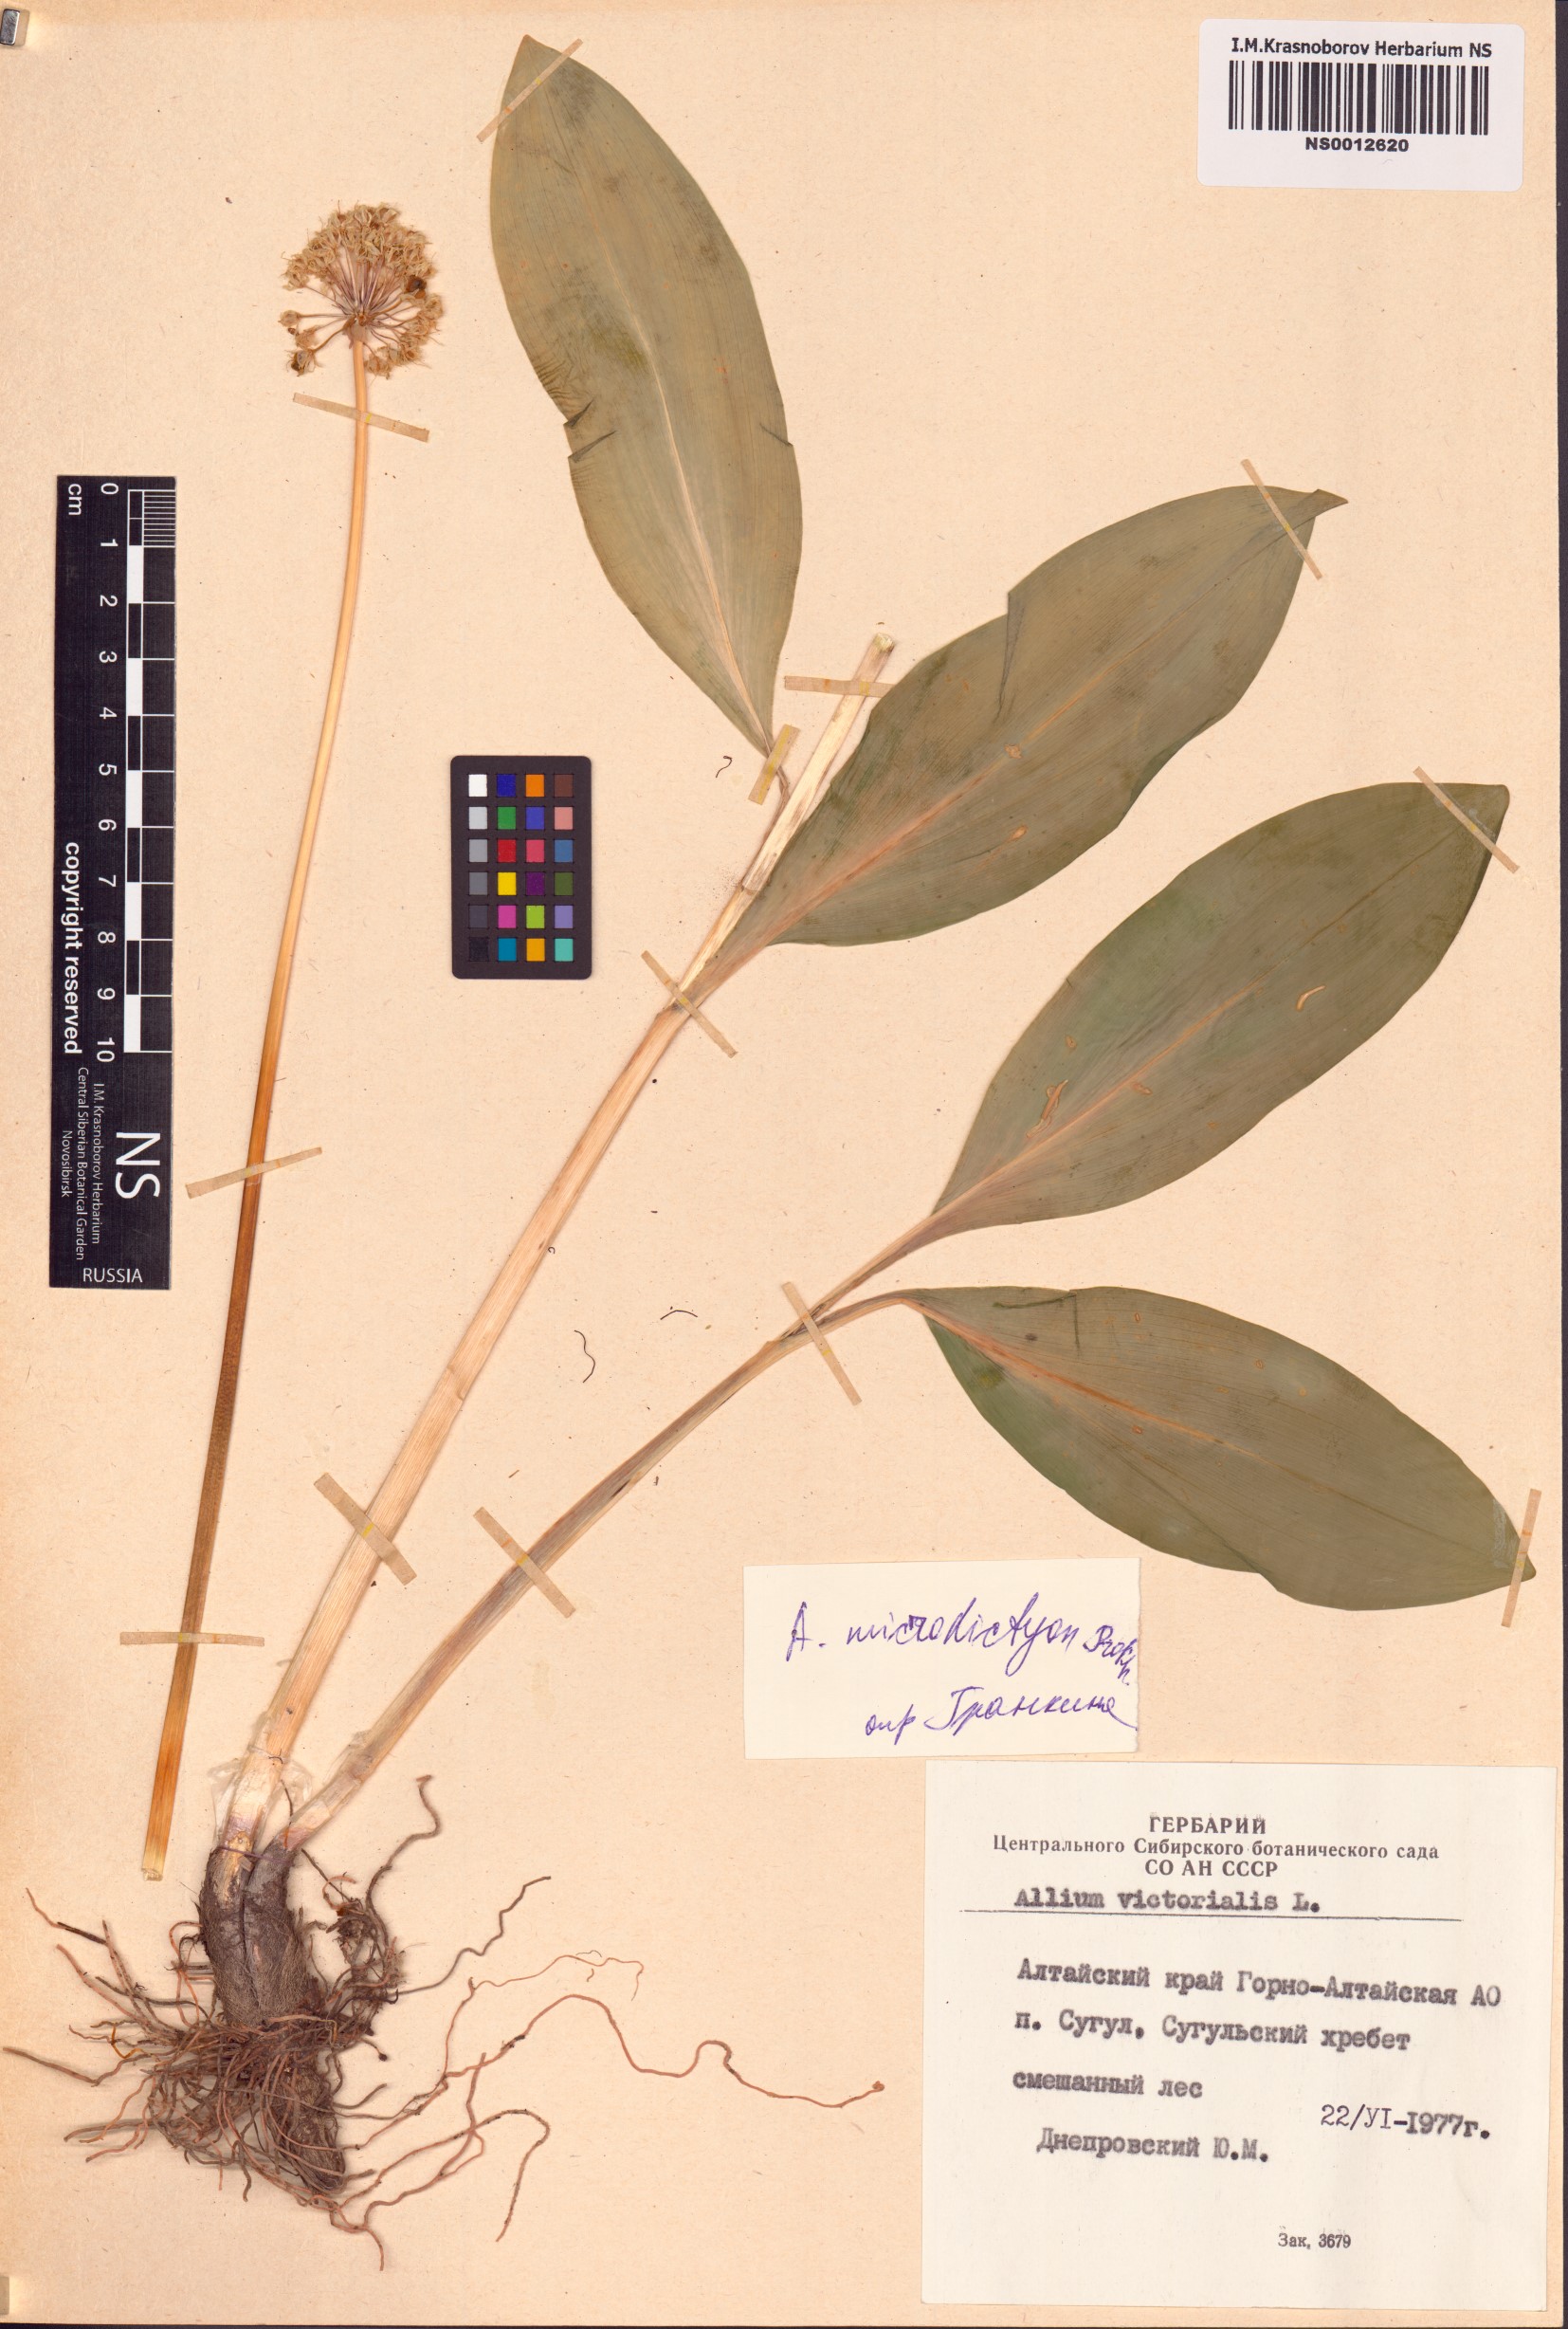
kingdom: Plantae
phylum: Tracheophyta
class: Liliopsida
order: Asparagales
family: Amaryllidaceae
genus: Allium
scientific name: Allium microdictyon
